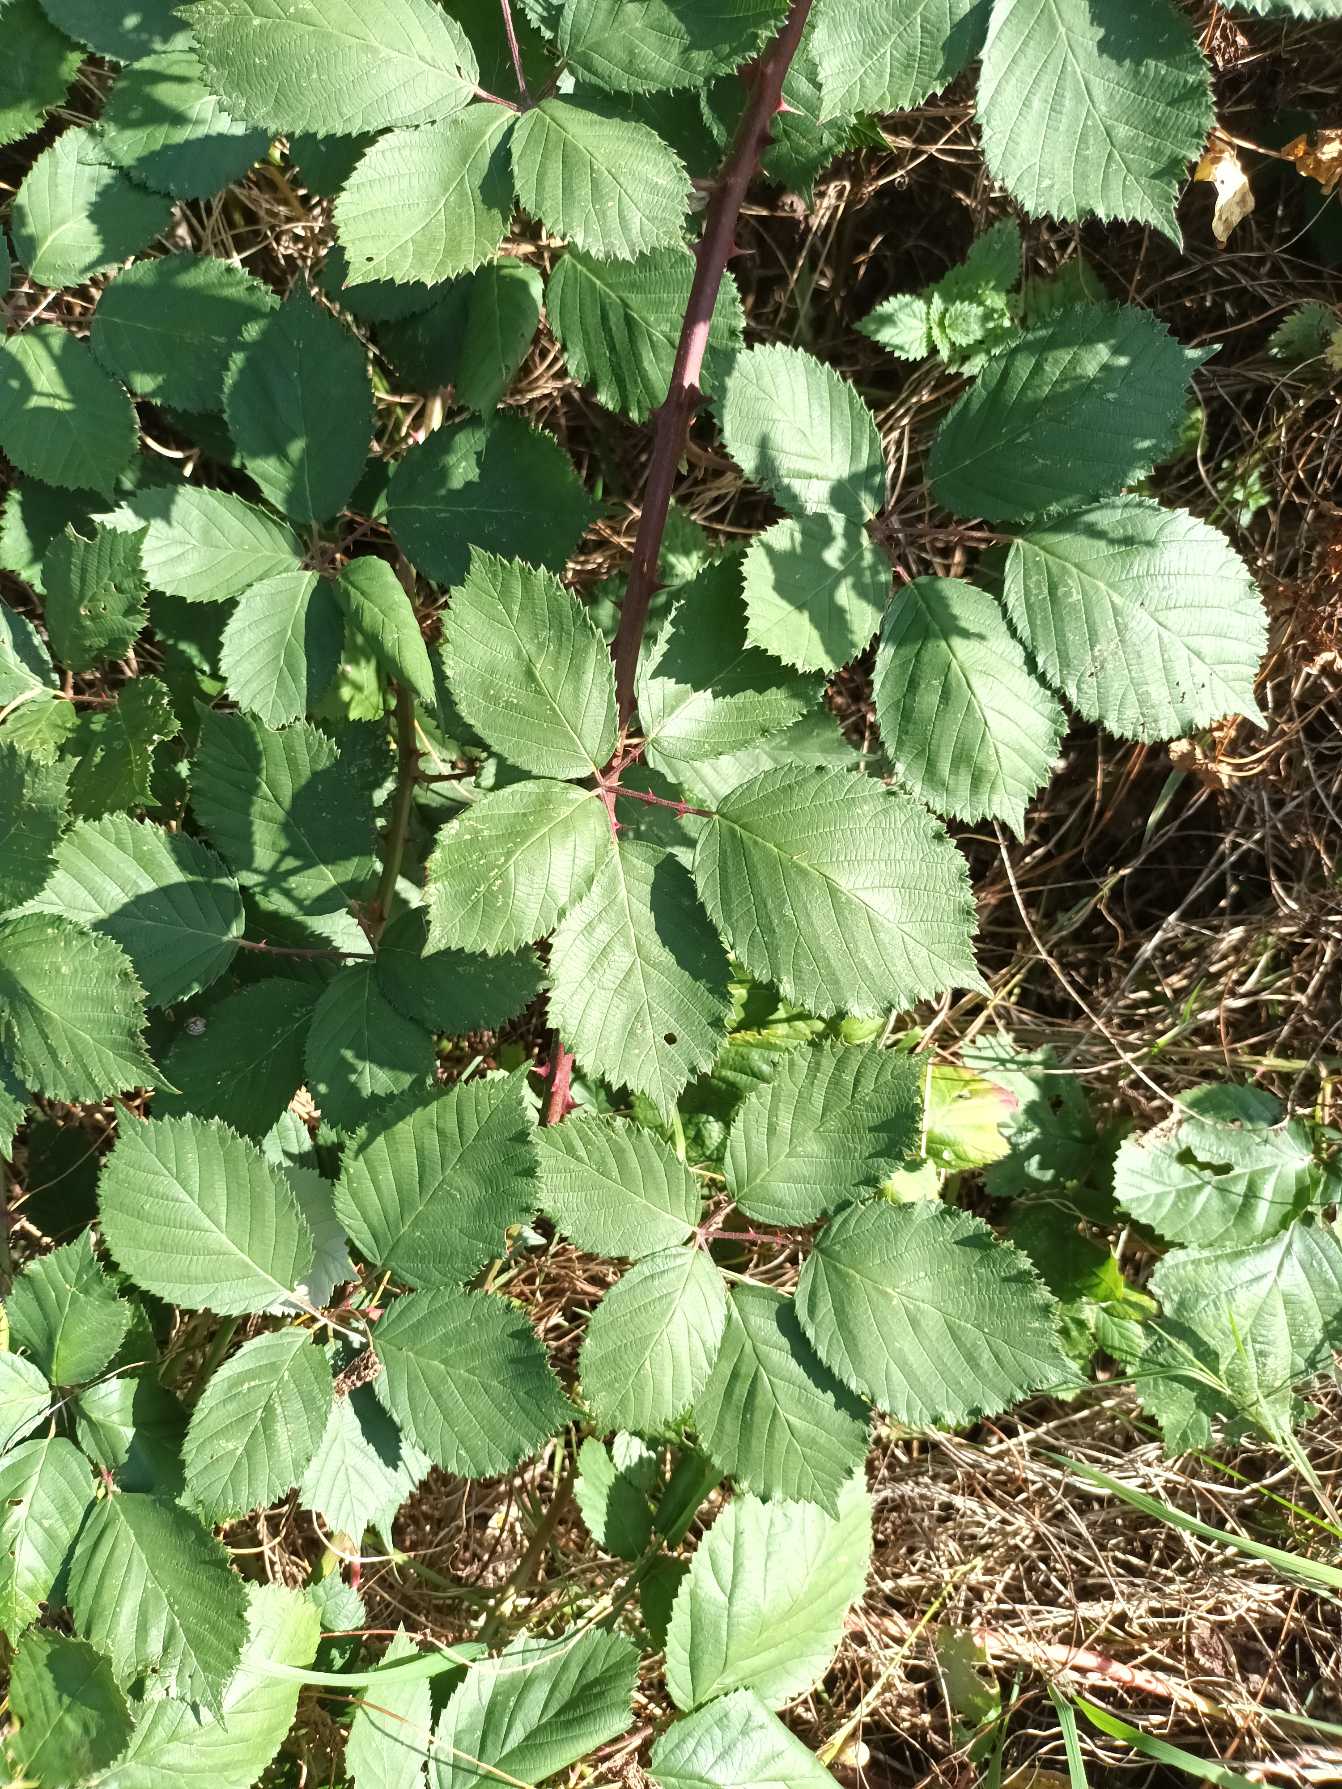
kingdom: Plantae
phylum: Tracheophyta
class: Magnoliopsida
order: Rosales
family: Rosaceae
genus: Rubus
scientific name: Rubus armeniacus
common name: Armensk brombær
